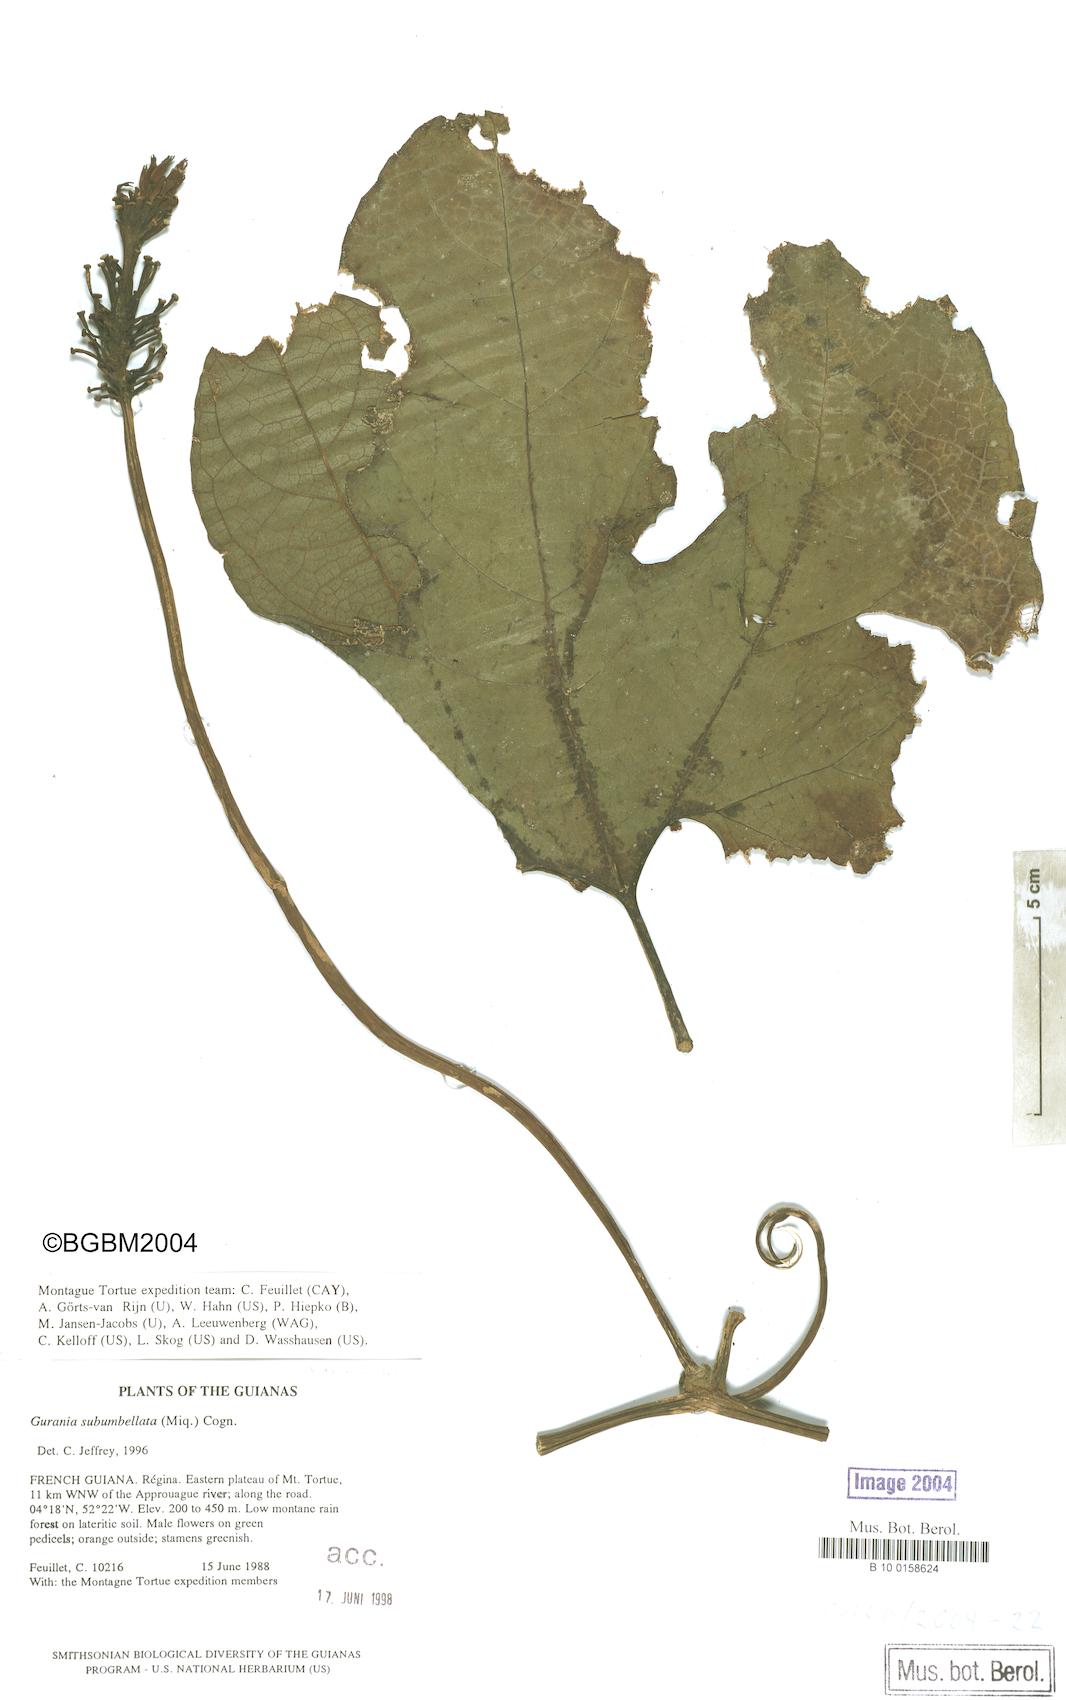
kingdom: Plantae
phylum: Tracheophyta
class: Magnoliopsida
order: Cucurbitales
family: Cucurbitaceae
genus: Gurania
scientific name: Gurania lobata
